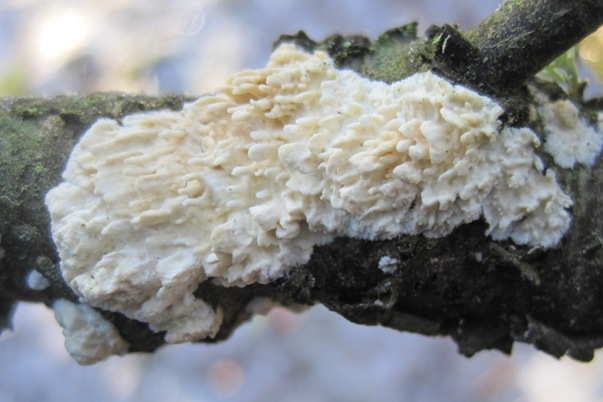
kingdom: Fungi
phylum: Basidiomycota
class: Agaricomycetes
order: Hymenochaetales
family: Schizoporaceae
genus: Xylodon
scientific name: Xylodon radula
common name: grovtandet kalkskind
